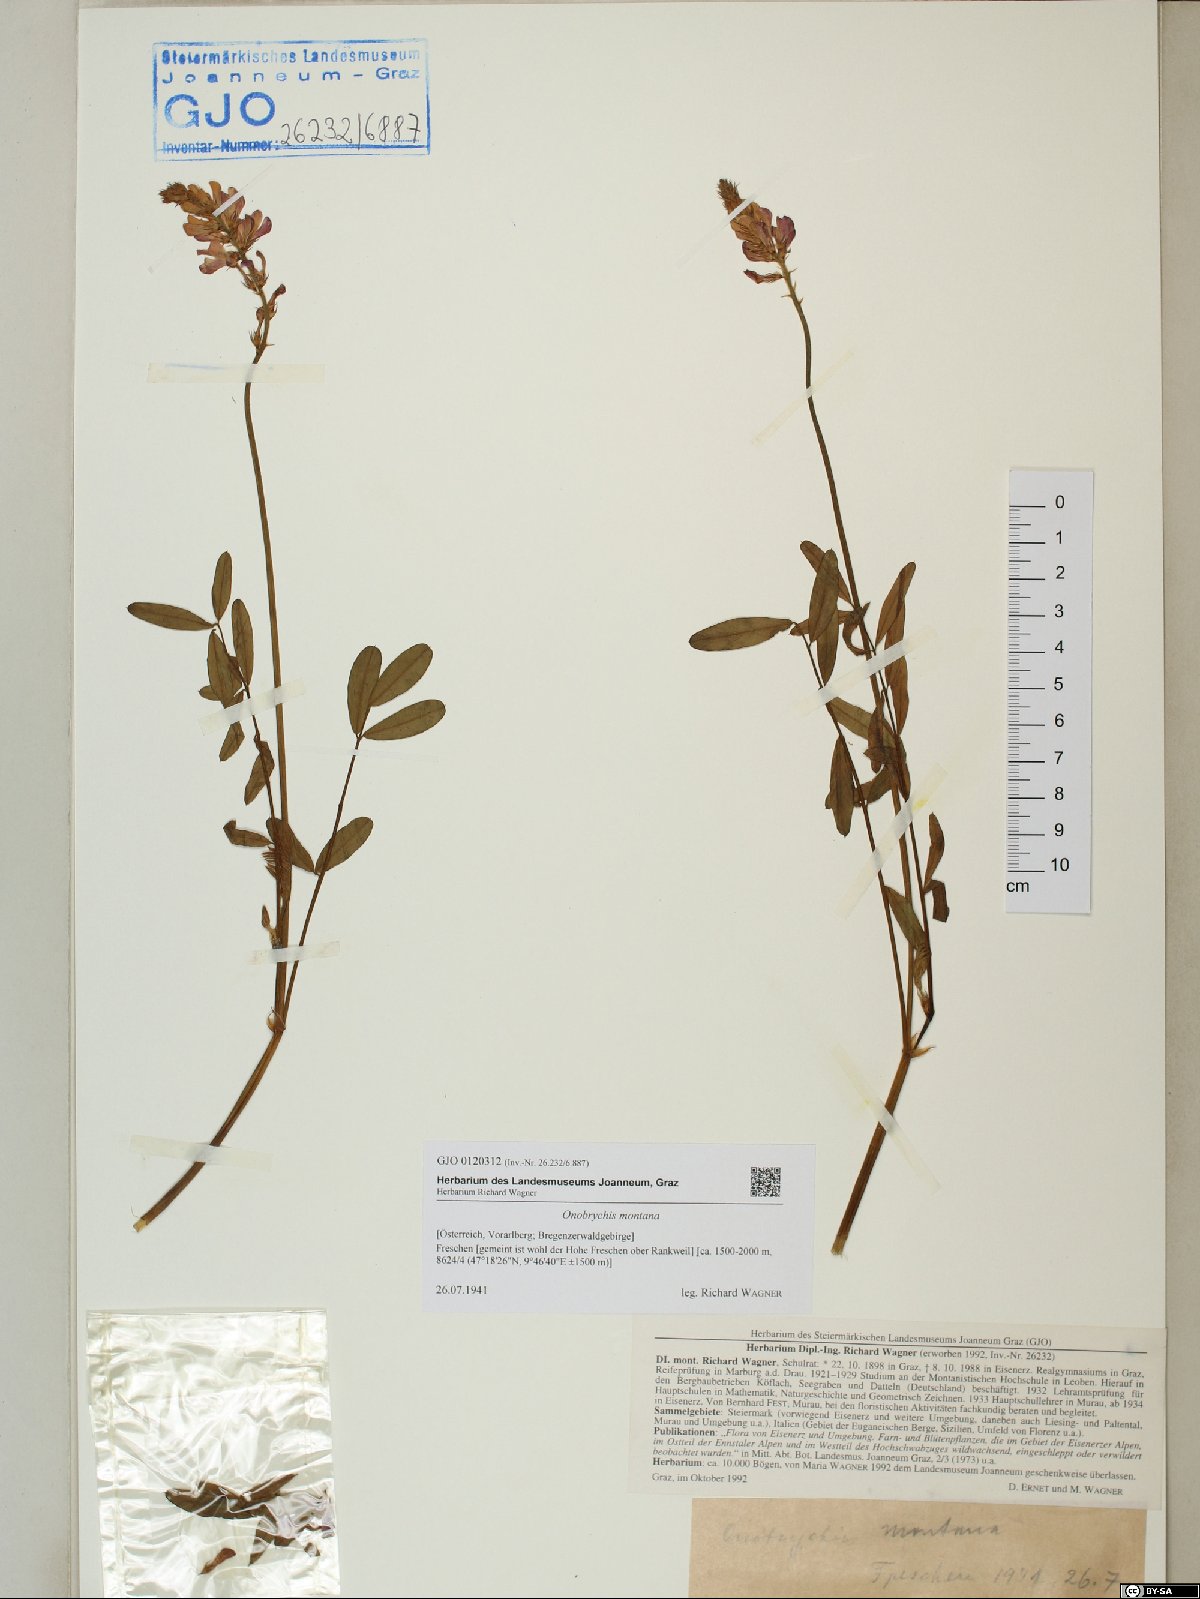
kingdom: Plantae
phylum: Tracheophyta
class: Magnoliopsida
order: Fabales
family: Fabaceae
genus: Onobrychis
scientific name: Onobrychis montana
